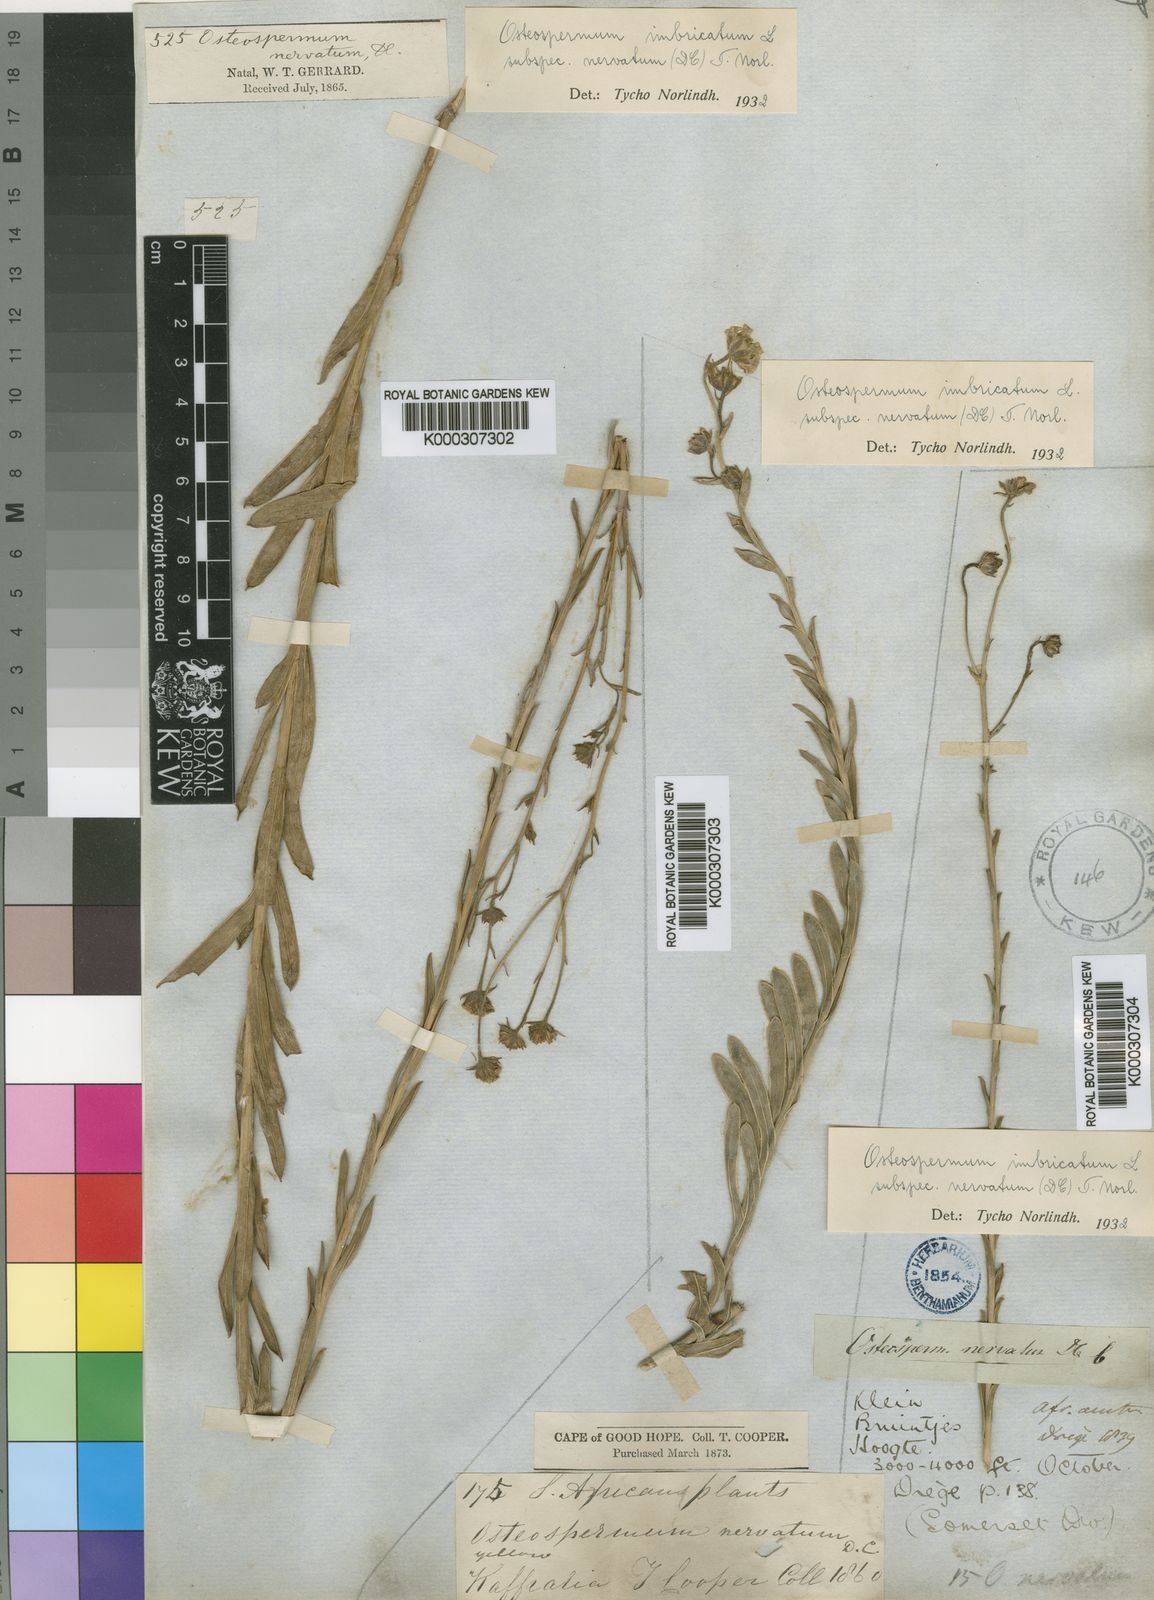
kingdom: Plantae
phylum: Tracheophyta
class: Magnoliopsida
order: Asterales
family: Asteraceae
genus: Osteospermum
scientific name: Osteospermum imbricatum
